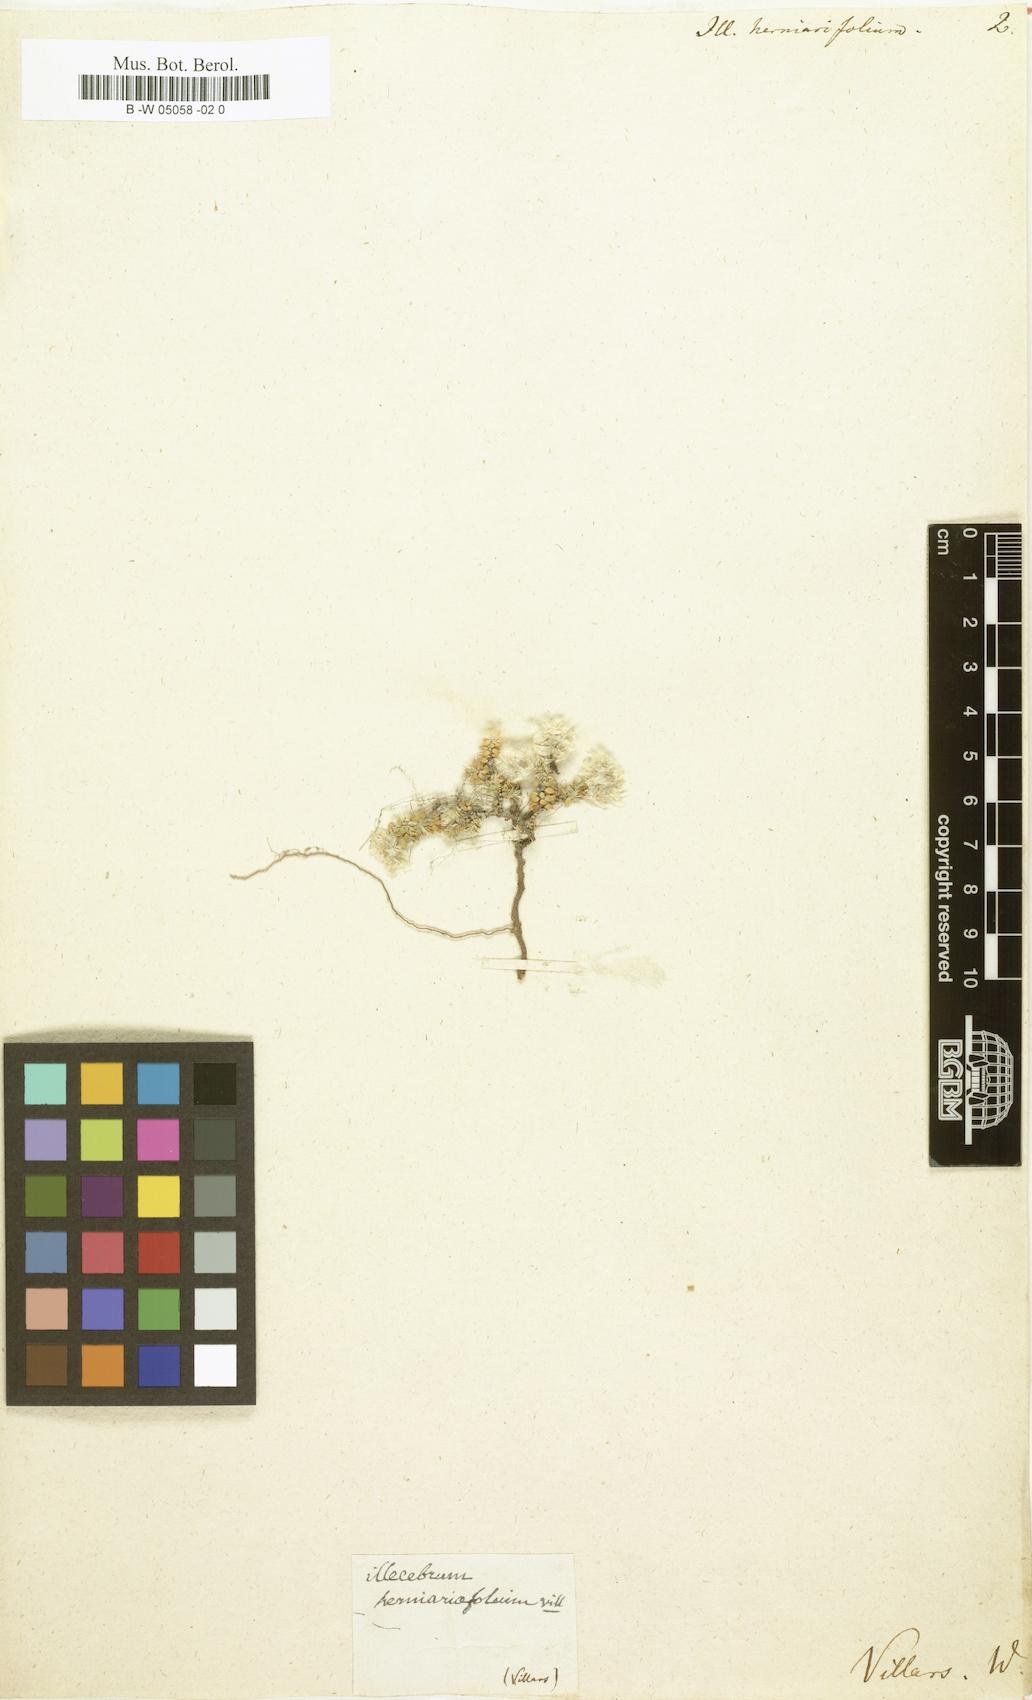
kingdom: Plantae
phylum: Tracheophyta
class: Magnoliopsida
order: Caryophyllales
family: Caryophyllaceae
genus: Illecebrum
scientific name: Illecebrum
